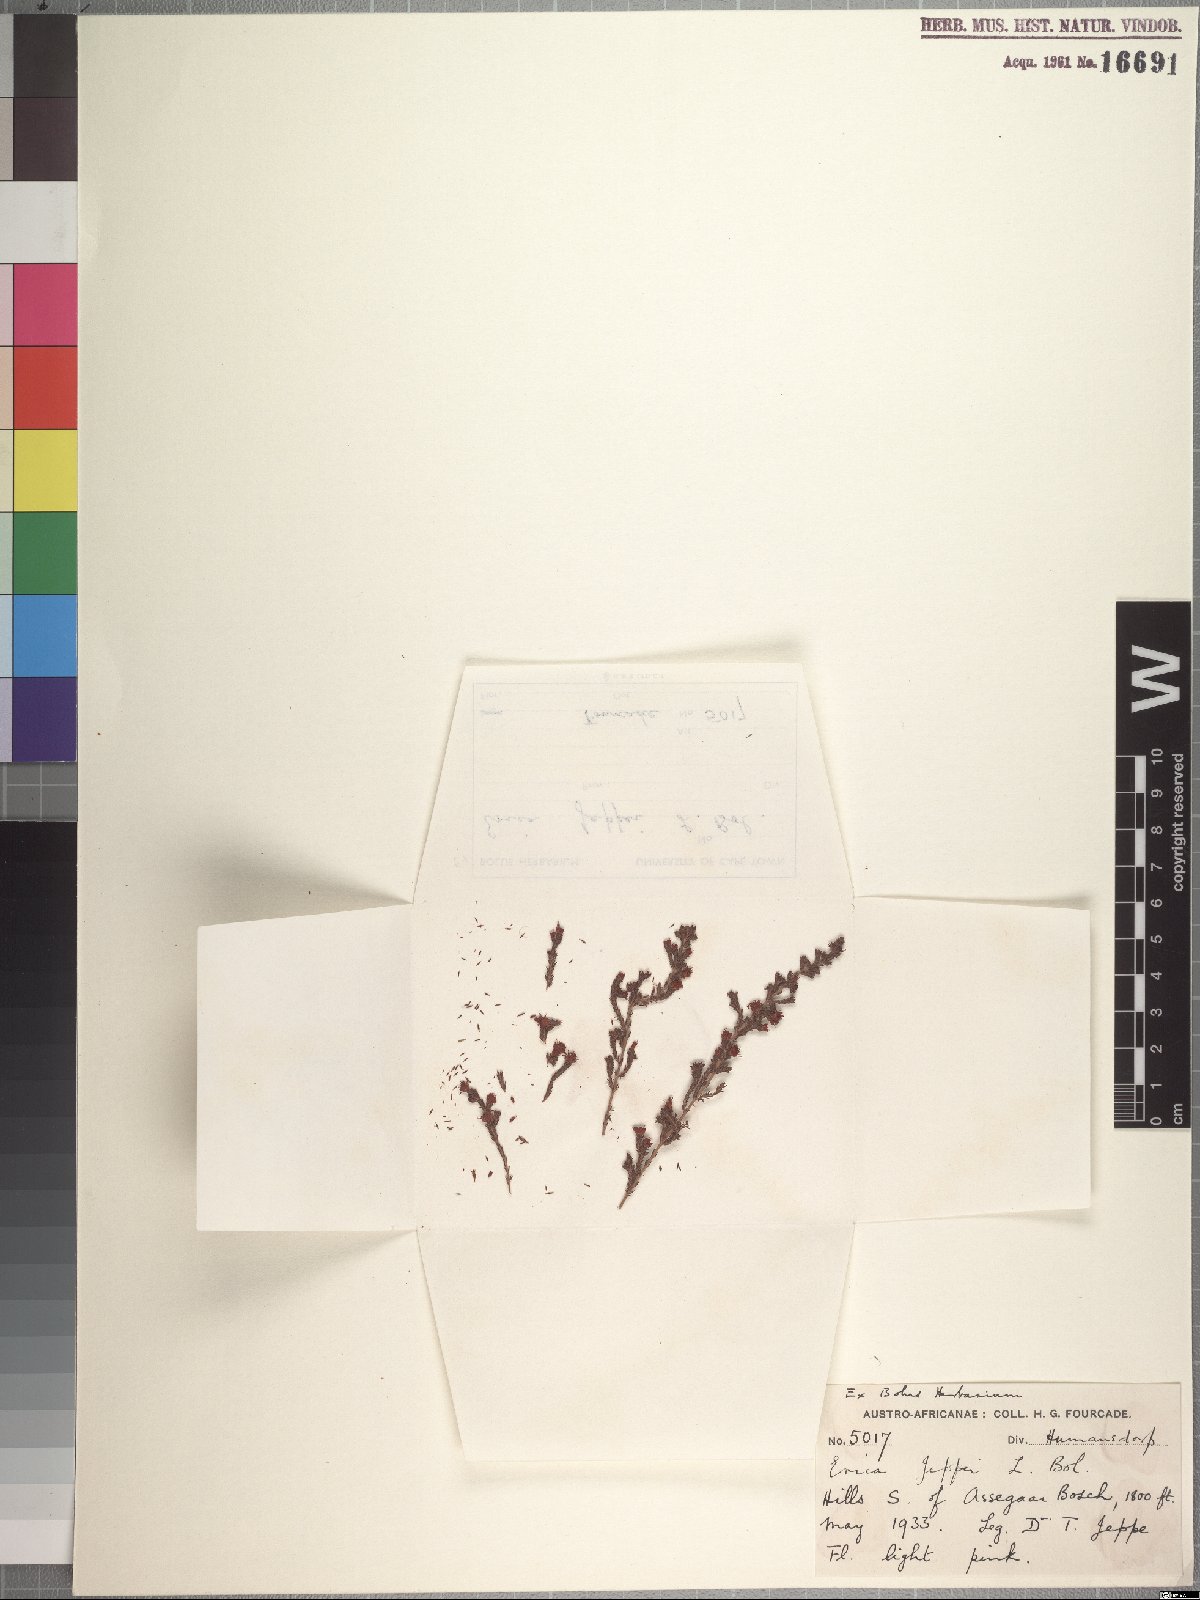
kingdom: Plantae
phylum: Tracheophyta
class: Magnoliopsida
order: Ericales
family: Ericaceae
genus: Erica
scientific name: Erica harveyana
